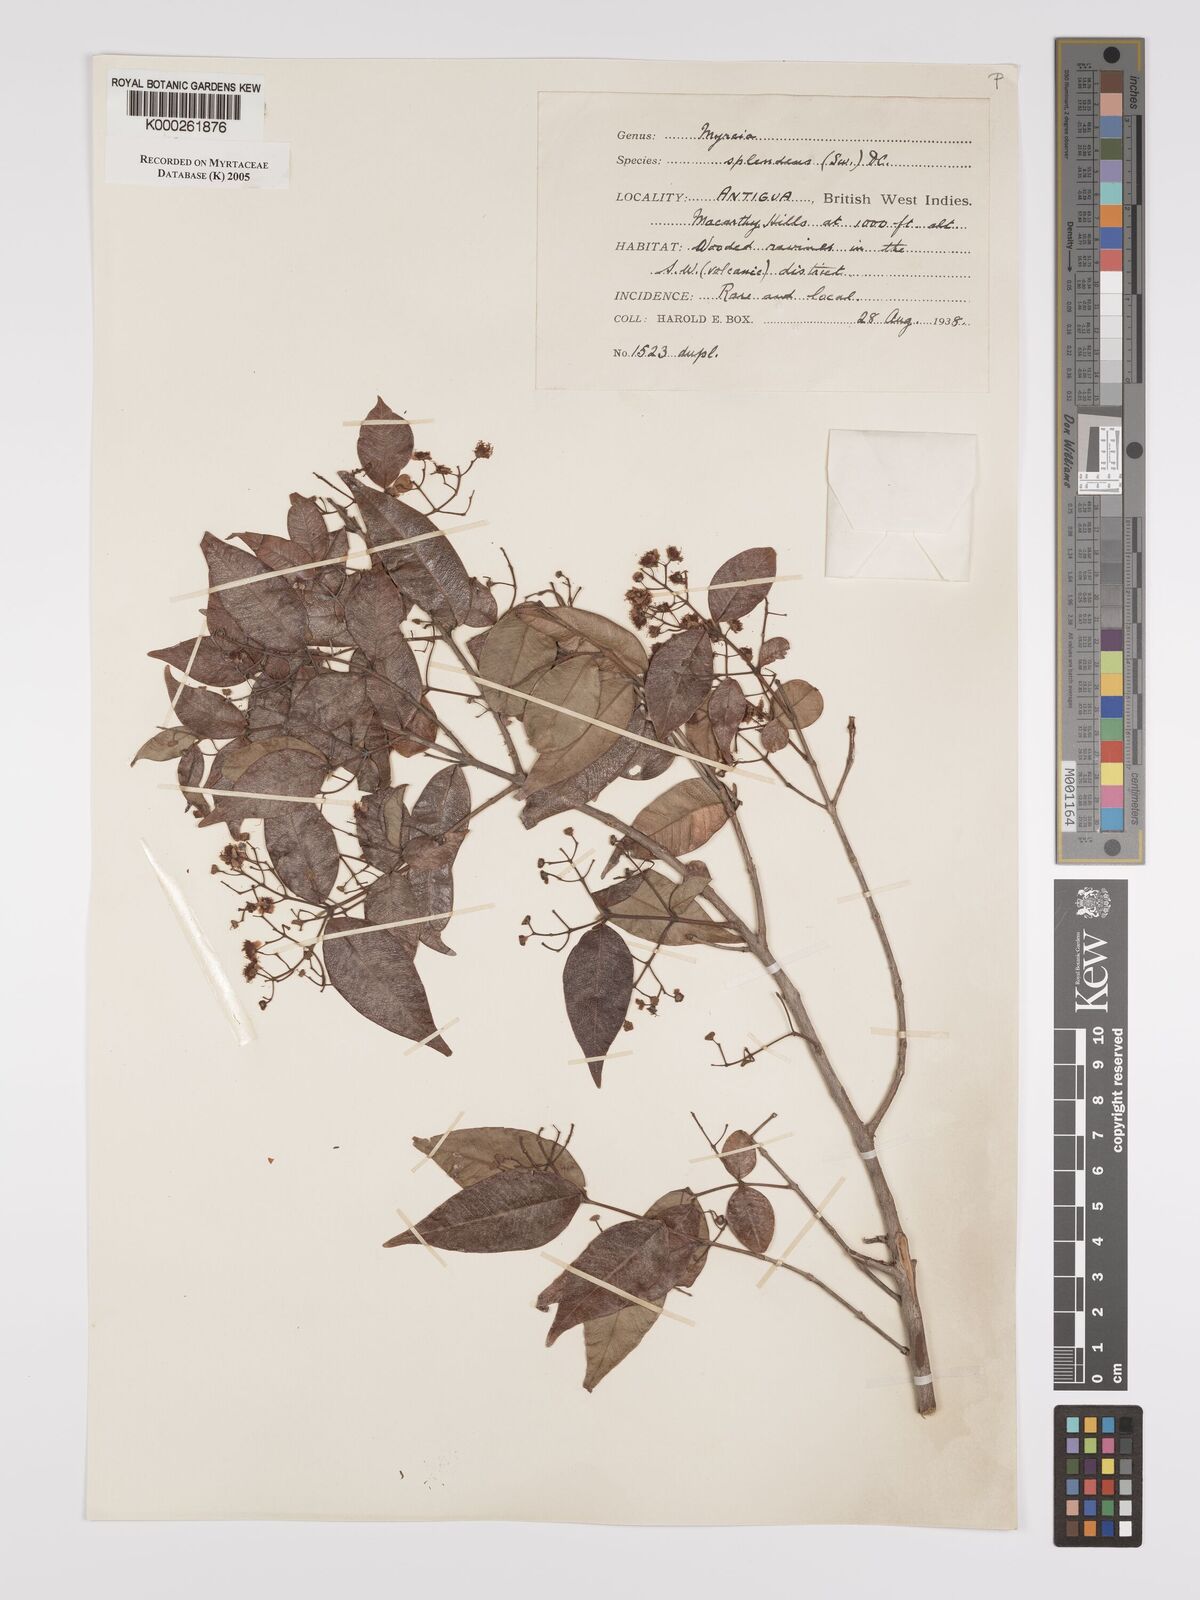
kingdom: Plantae
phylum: Tracheophyta
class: Magnoliopsida
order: Myrtales
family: Myrtaceae
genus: Myrcia
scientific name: Myrcia splendens
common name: Surinam cherry
